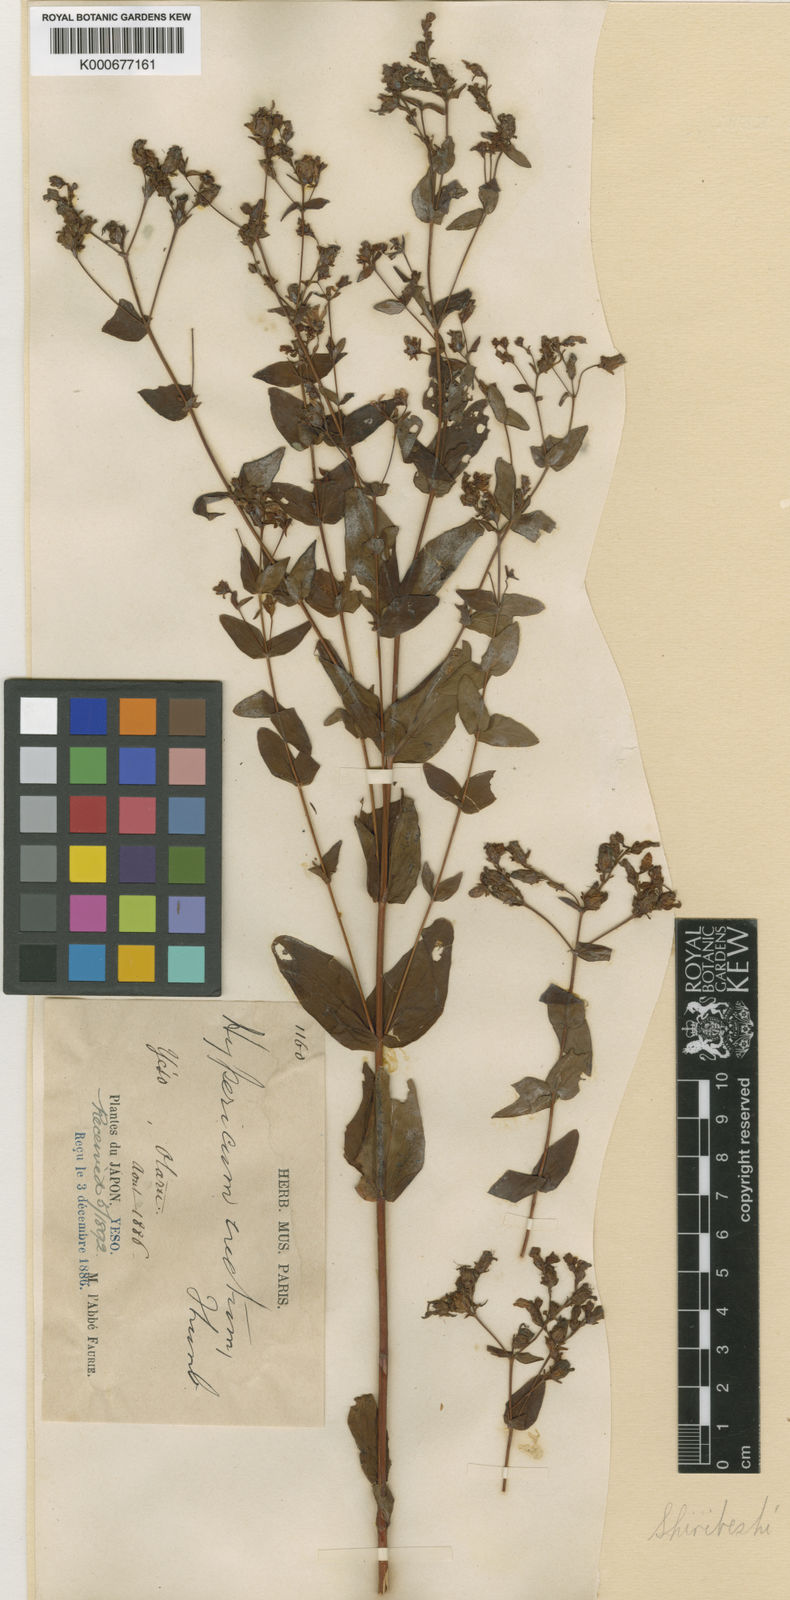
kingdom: Plantae
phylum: Tracheophyta
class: Magnoliopsida
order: Malpighiales
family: Hypericaceae
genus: Hypericum
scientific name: Hypericum erectum
